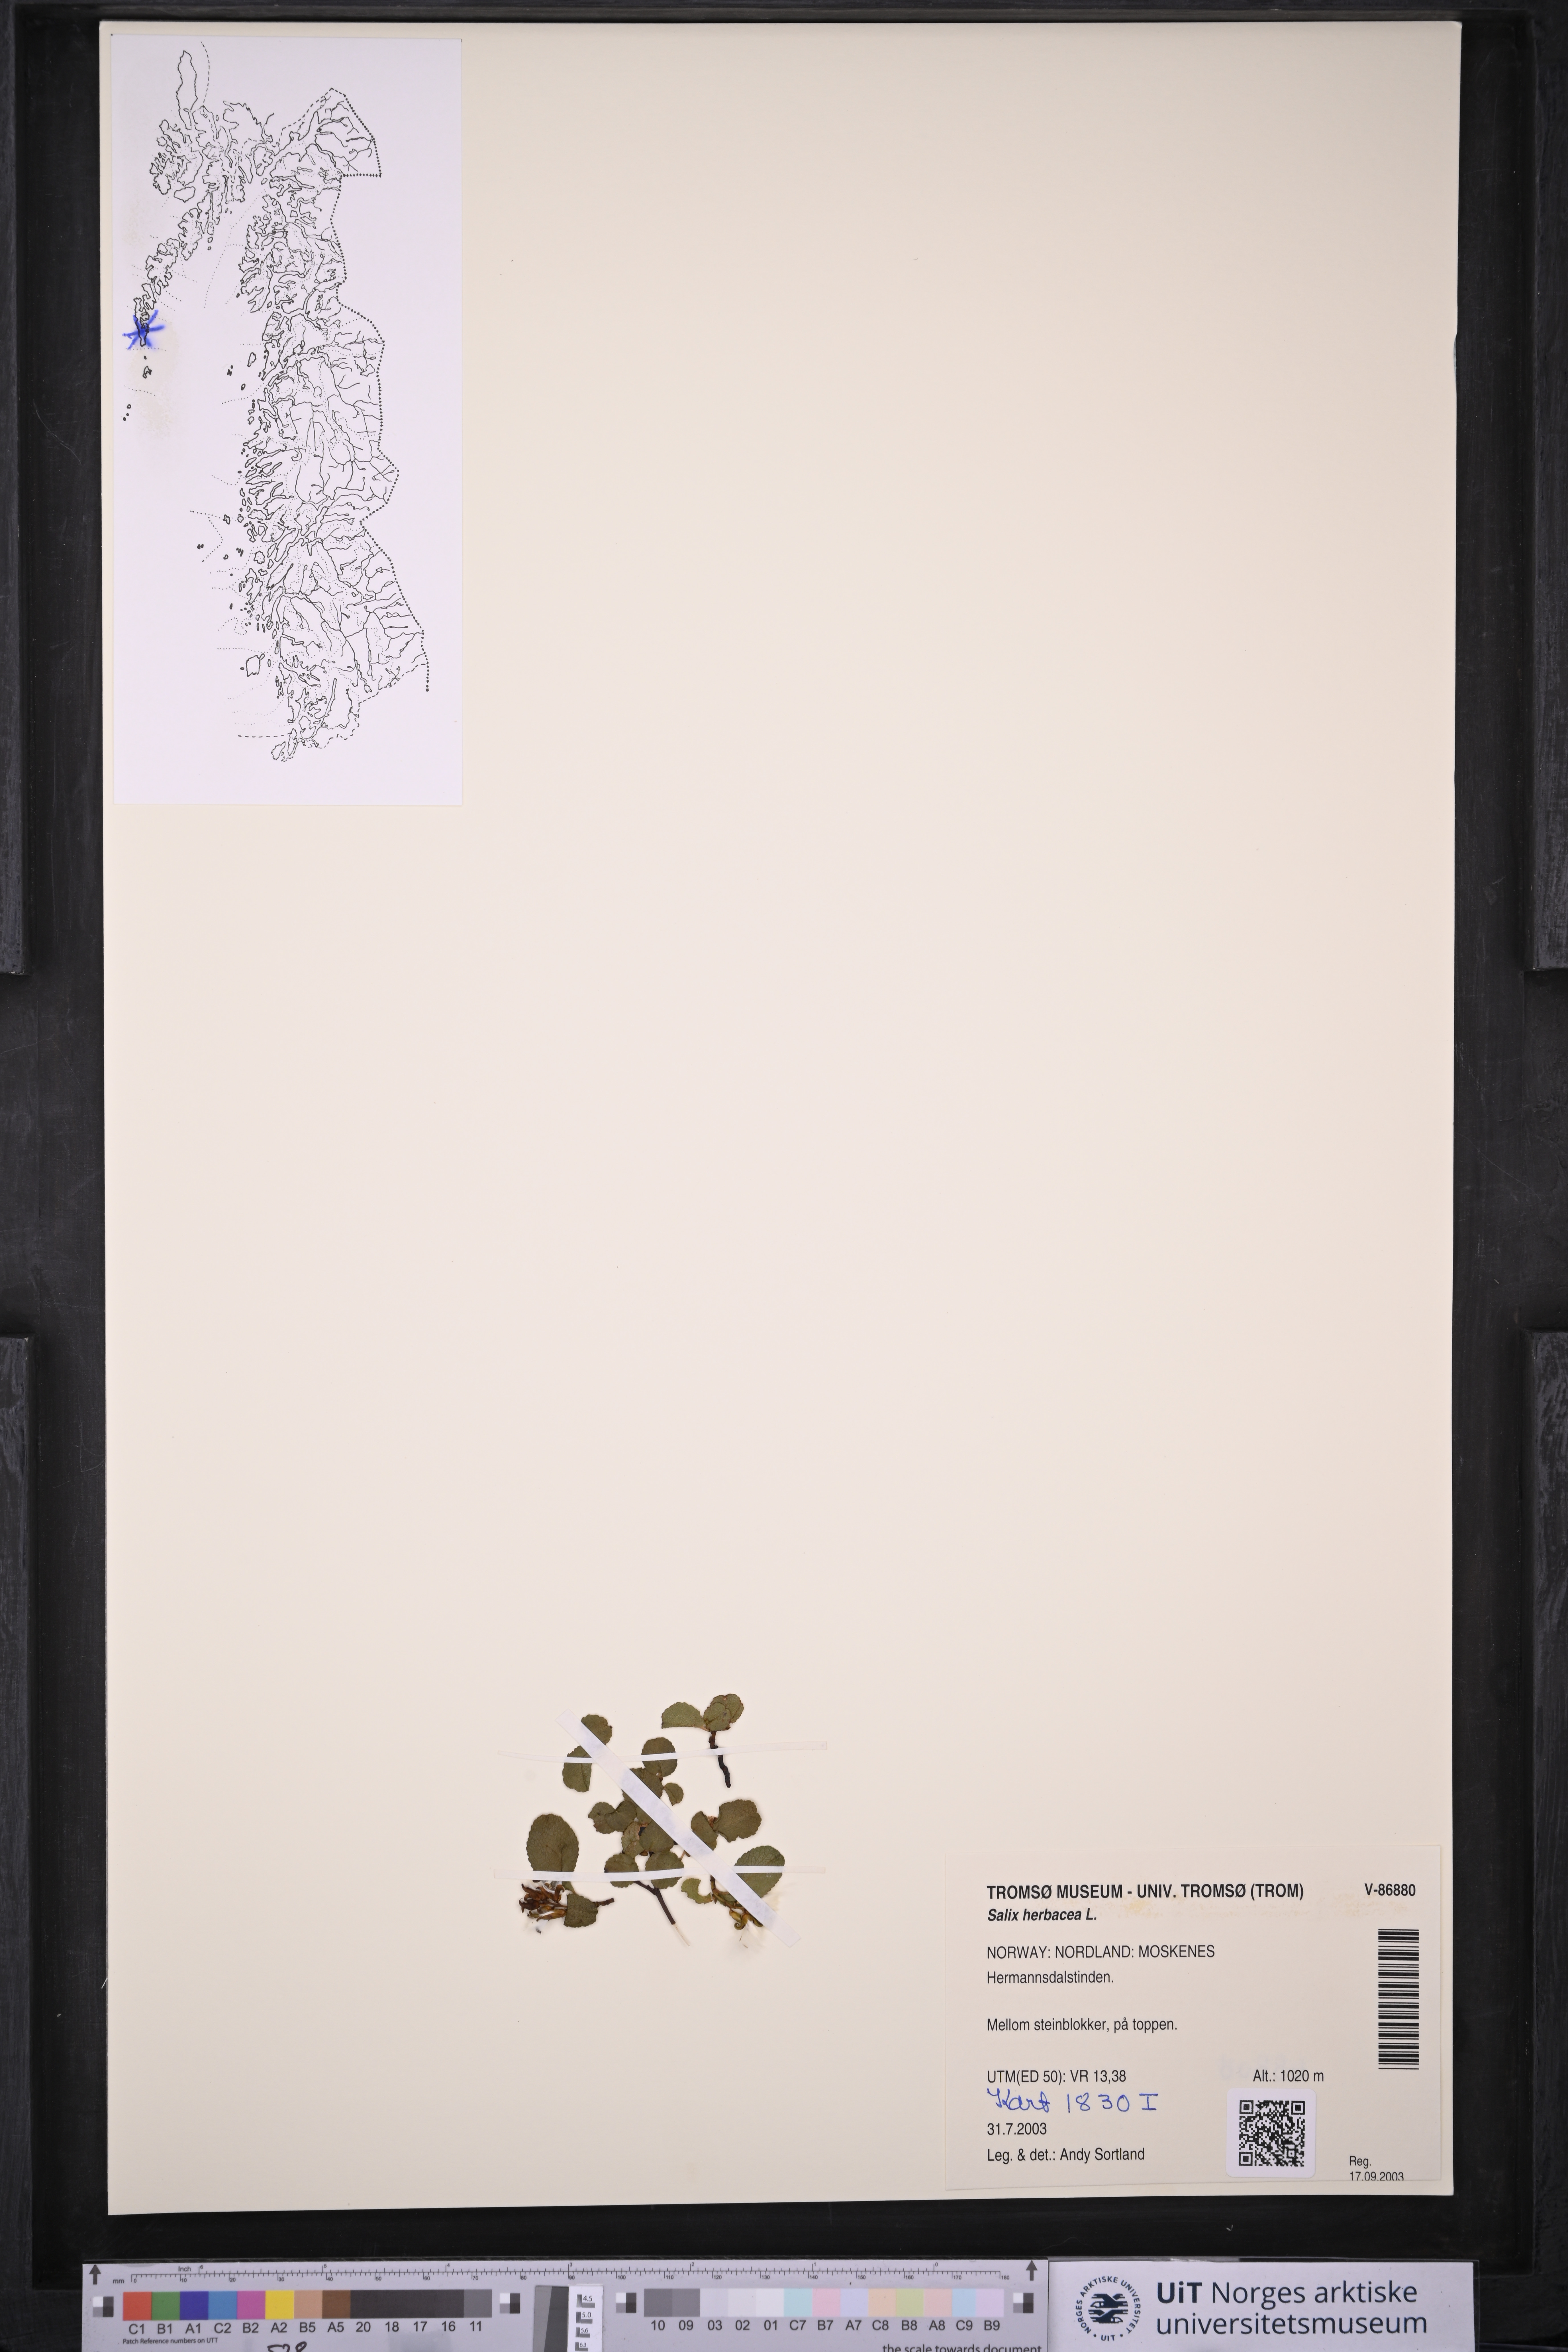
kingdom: Plantae
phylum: Tracheophyta
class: Magnoliopsida
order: Malpighiales
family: Salicaceae
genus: Salix
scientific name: Salix herbacea
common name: Dwarf willow
